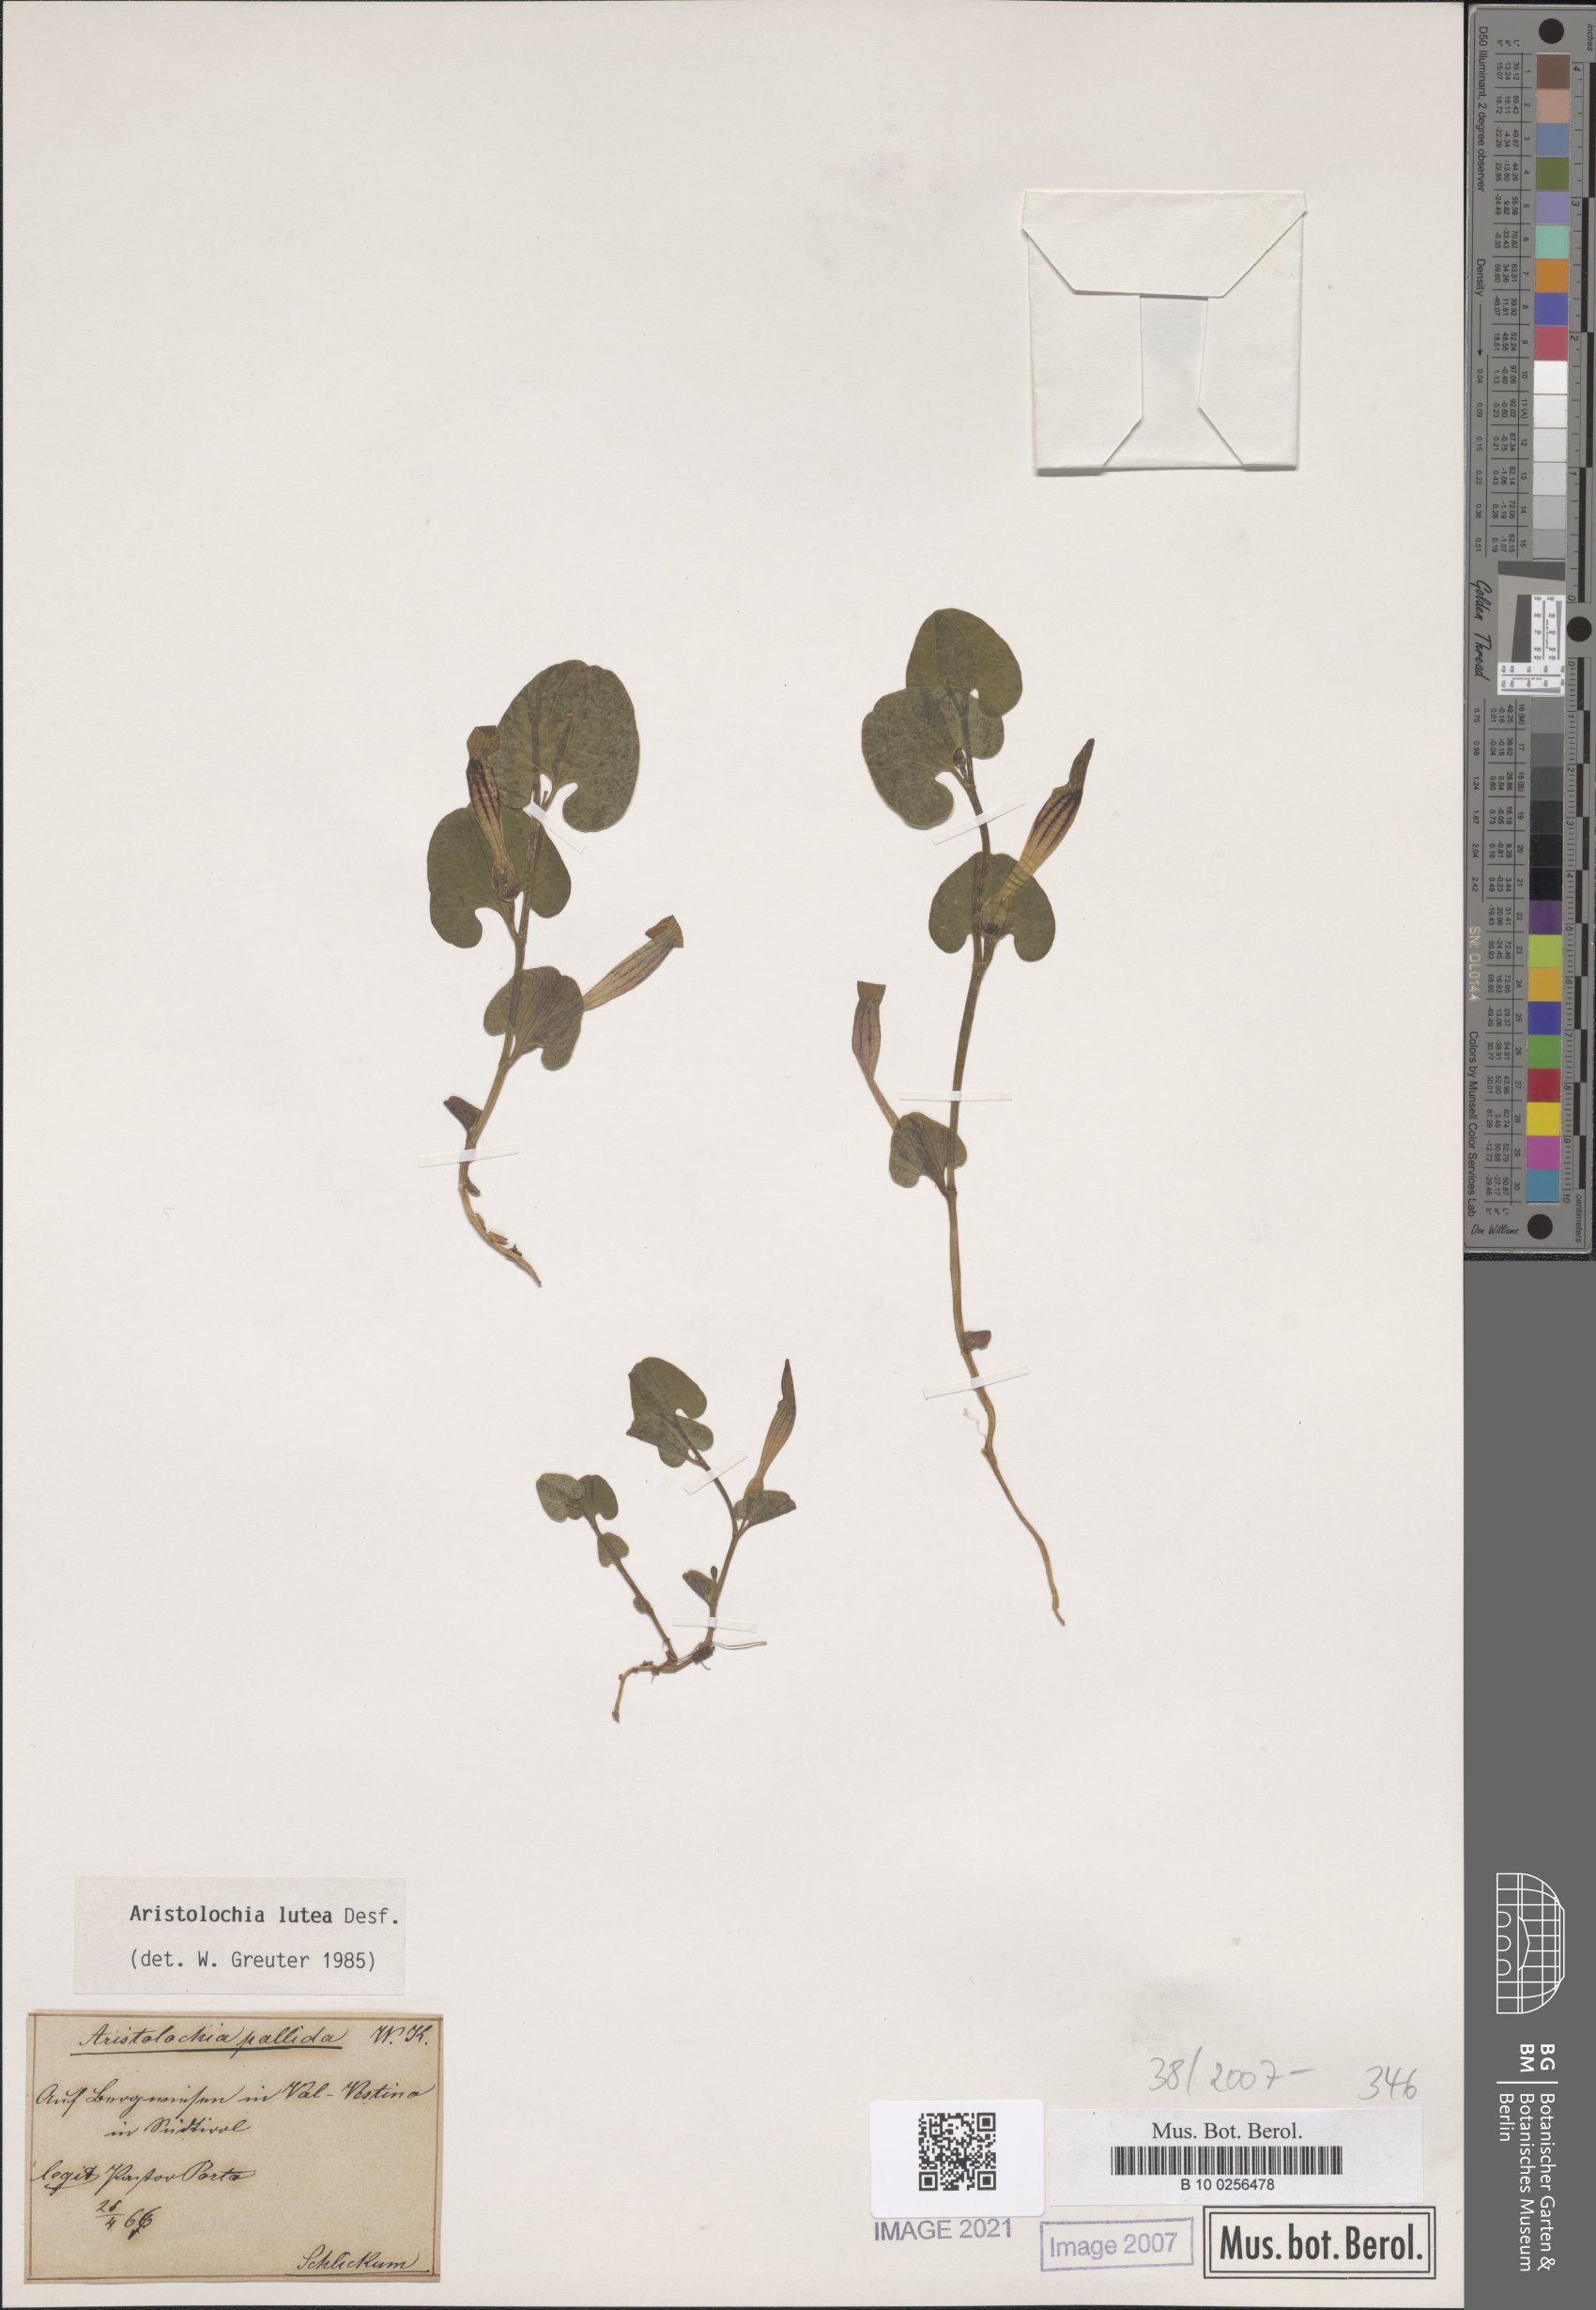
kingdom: Plantae
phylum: Tracheophyta
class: Magnoliopsida
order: Piperales
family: Aristolochiaceae
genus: Aristolochia
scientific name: Aristolochia lutea
